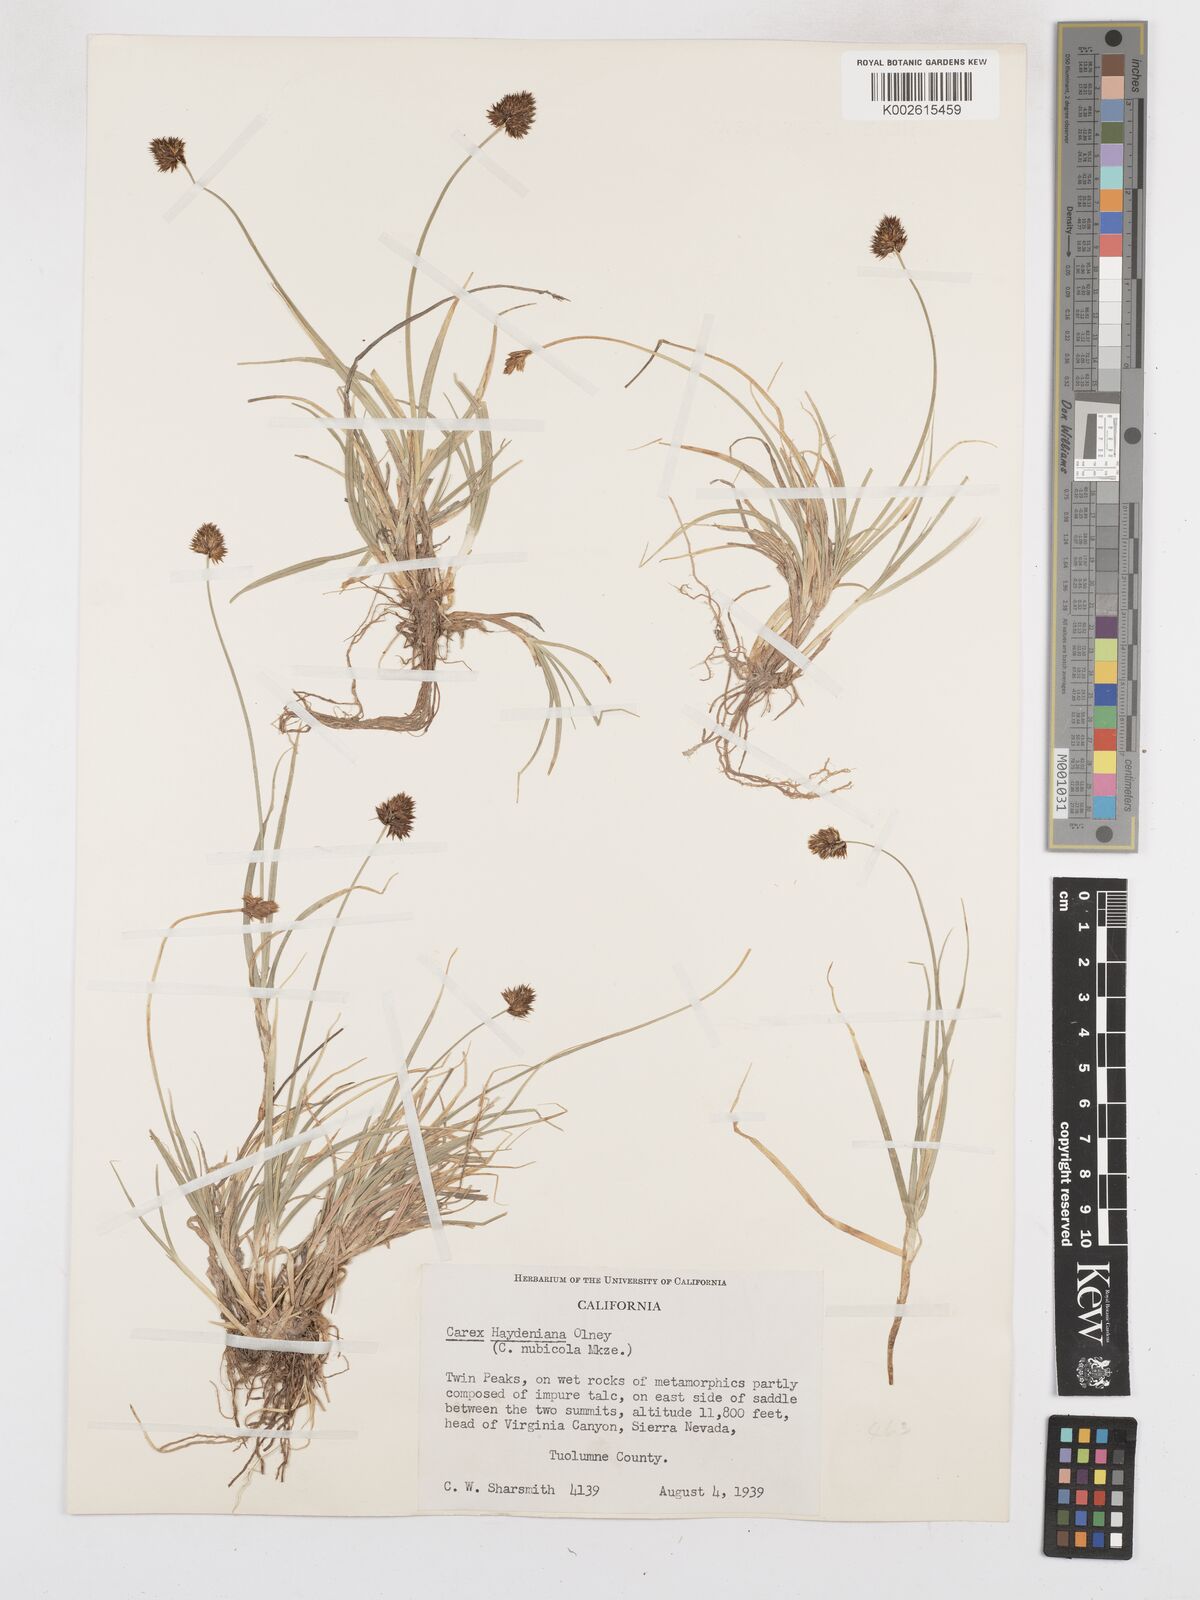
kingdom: Plantae
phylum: Tracheophyta
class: Liliopsida
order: Poales
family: Cyperaceae
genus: Carex
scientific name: Carex haydeniana
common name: Cloud sedge
